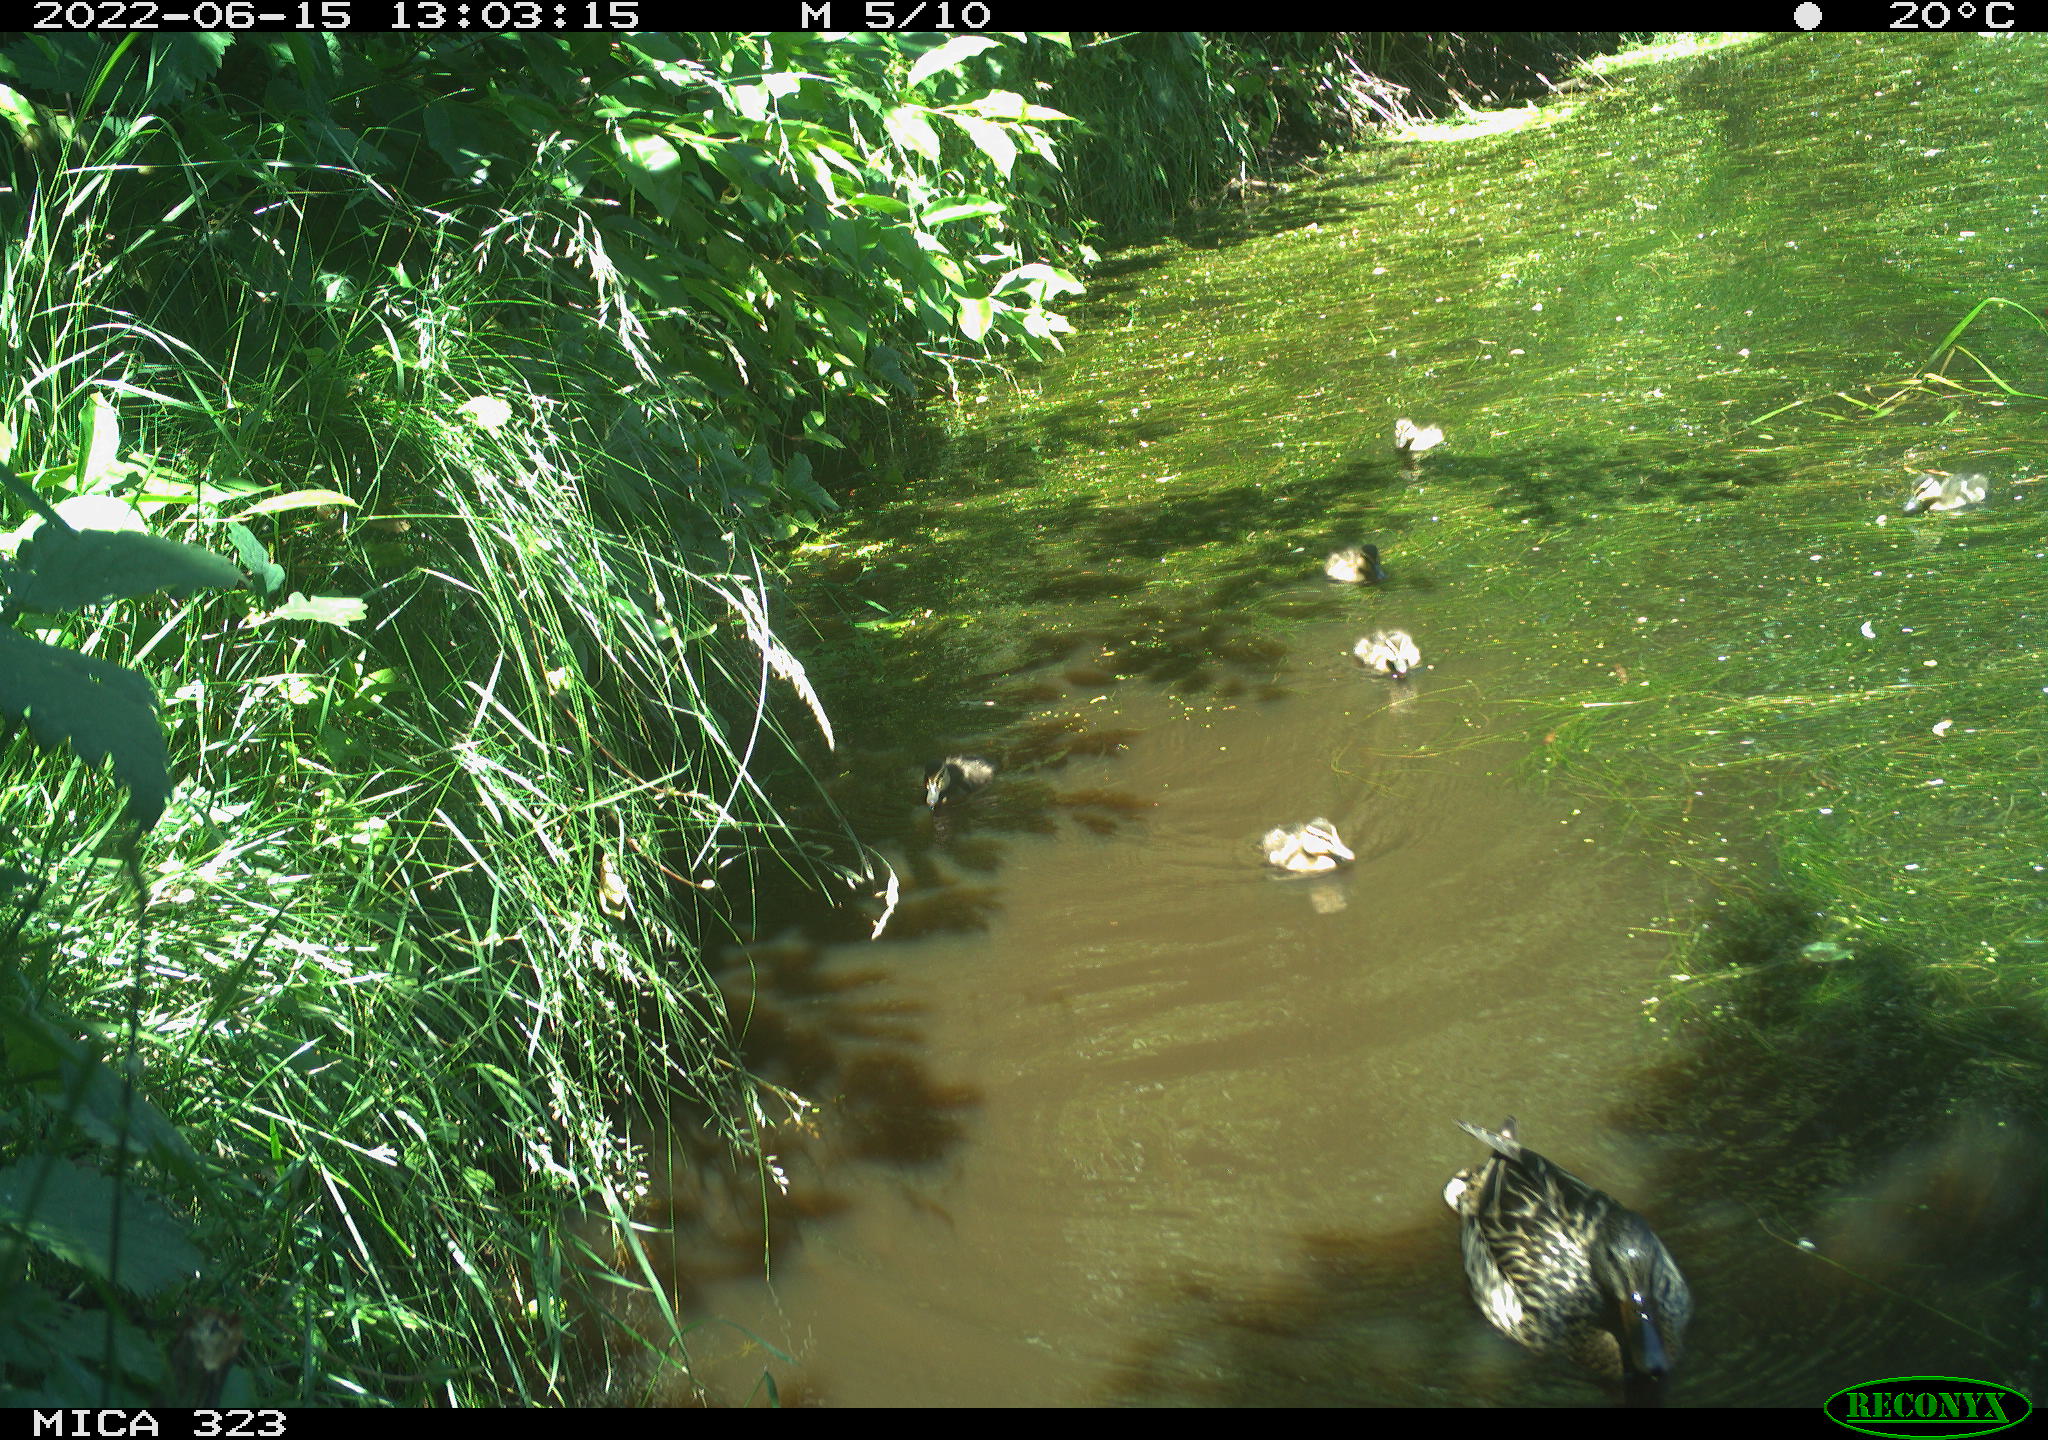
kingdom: Animalia
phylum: Chordata
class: Aves
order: Anseriformes
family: Anatidae
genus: Anas
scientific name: Anas platyrhynchos
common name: Mallard
